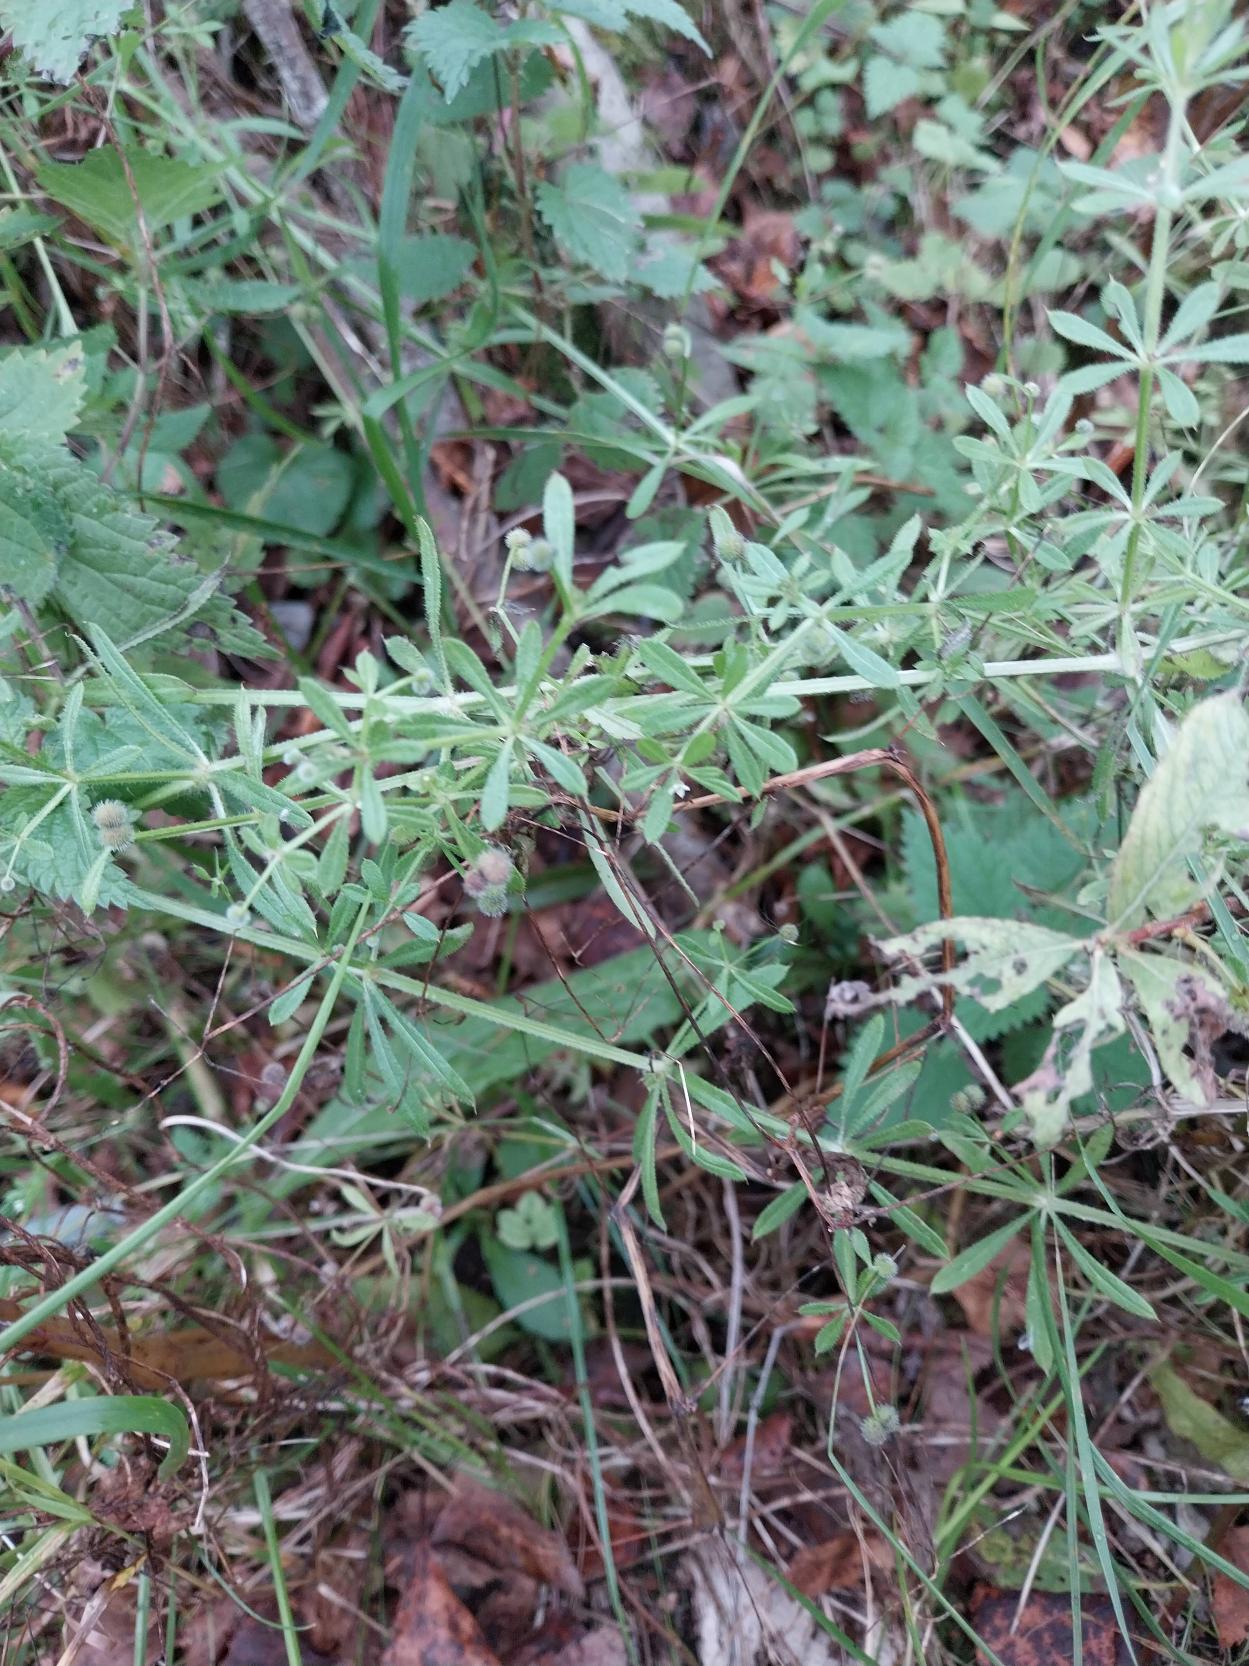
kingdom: Plantae
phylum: Tracheophyta
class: Magnoliopsida
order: Gentianales
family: Rubiaceae
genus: Galium
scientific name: Galium aparine
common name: Burre-snerre
